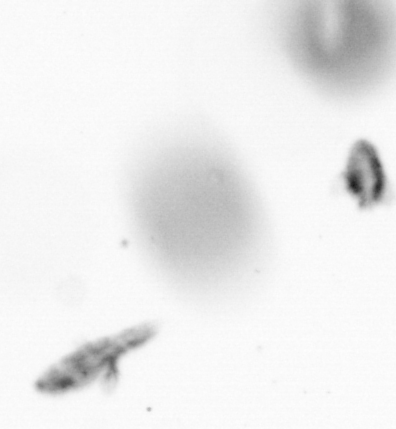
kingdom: Animalia
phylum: Arthropoda
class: Copepoda
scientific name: Copepoda
